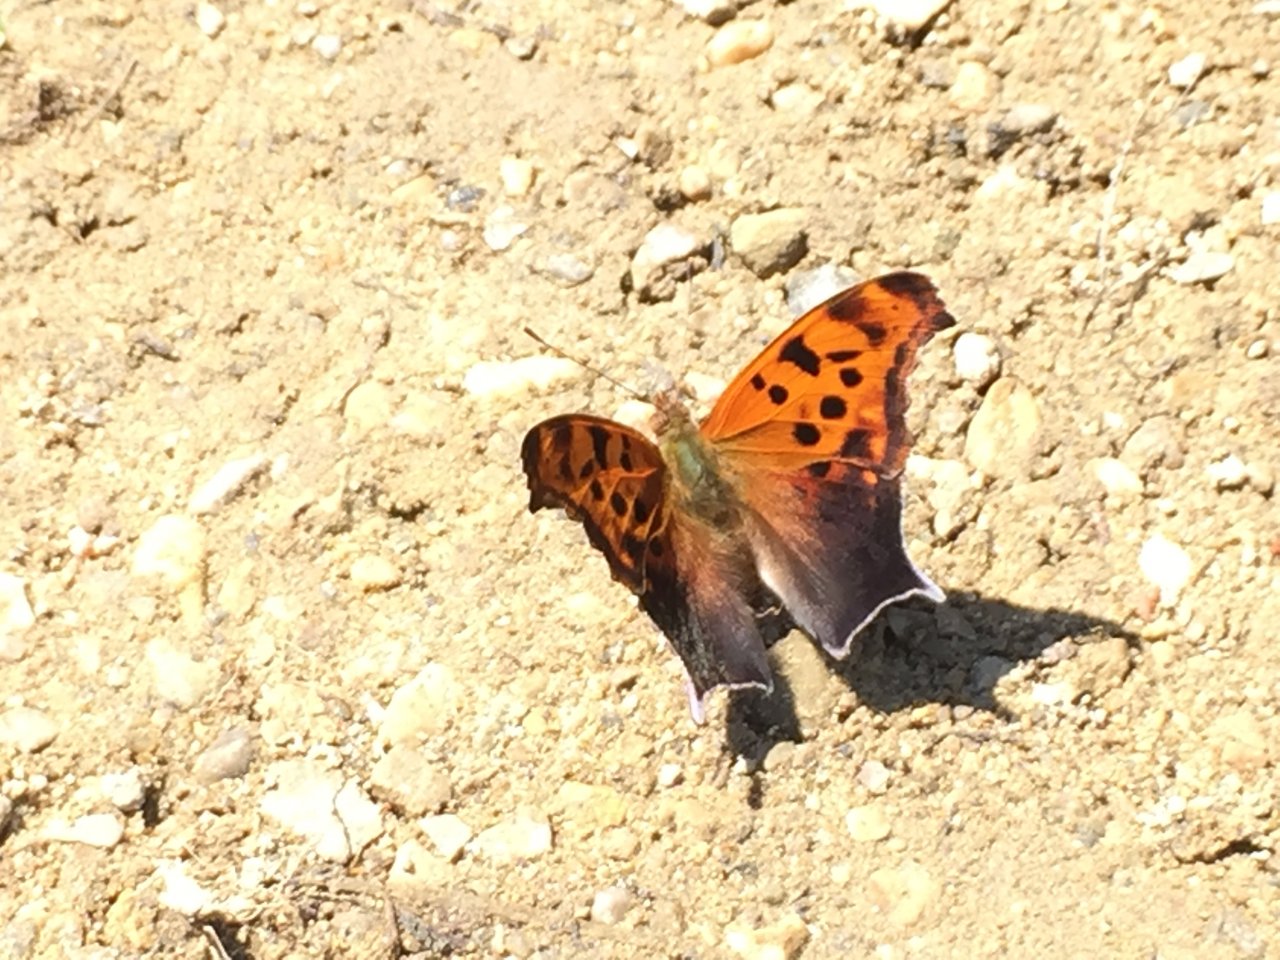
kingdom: Animalia
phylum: Arthropoda
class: Insecta
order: Lepidoptera
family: Nymphalidae
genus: Polygonia
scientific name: Polygonia interrogationis
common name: Question Mark
